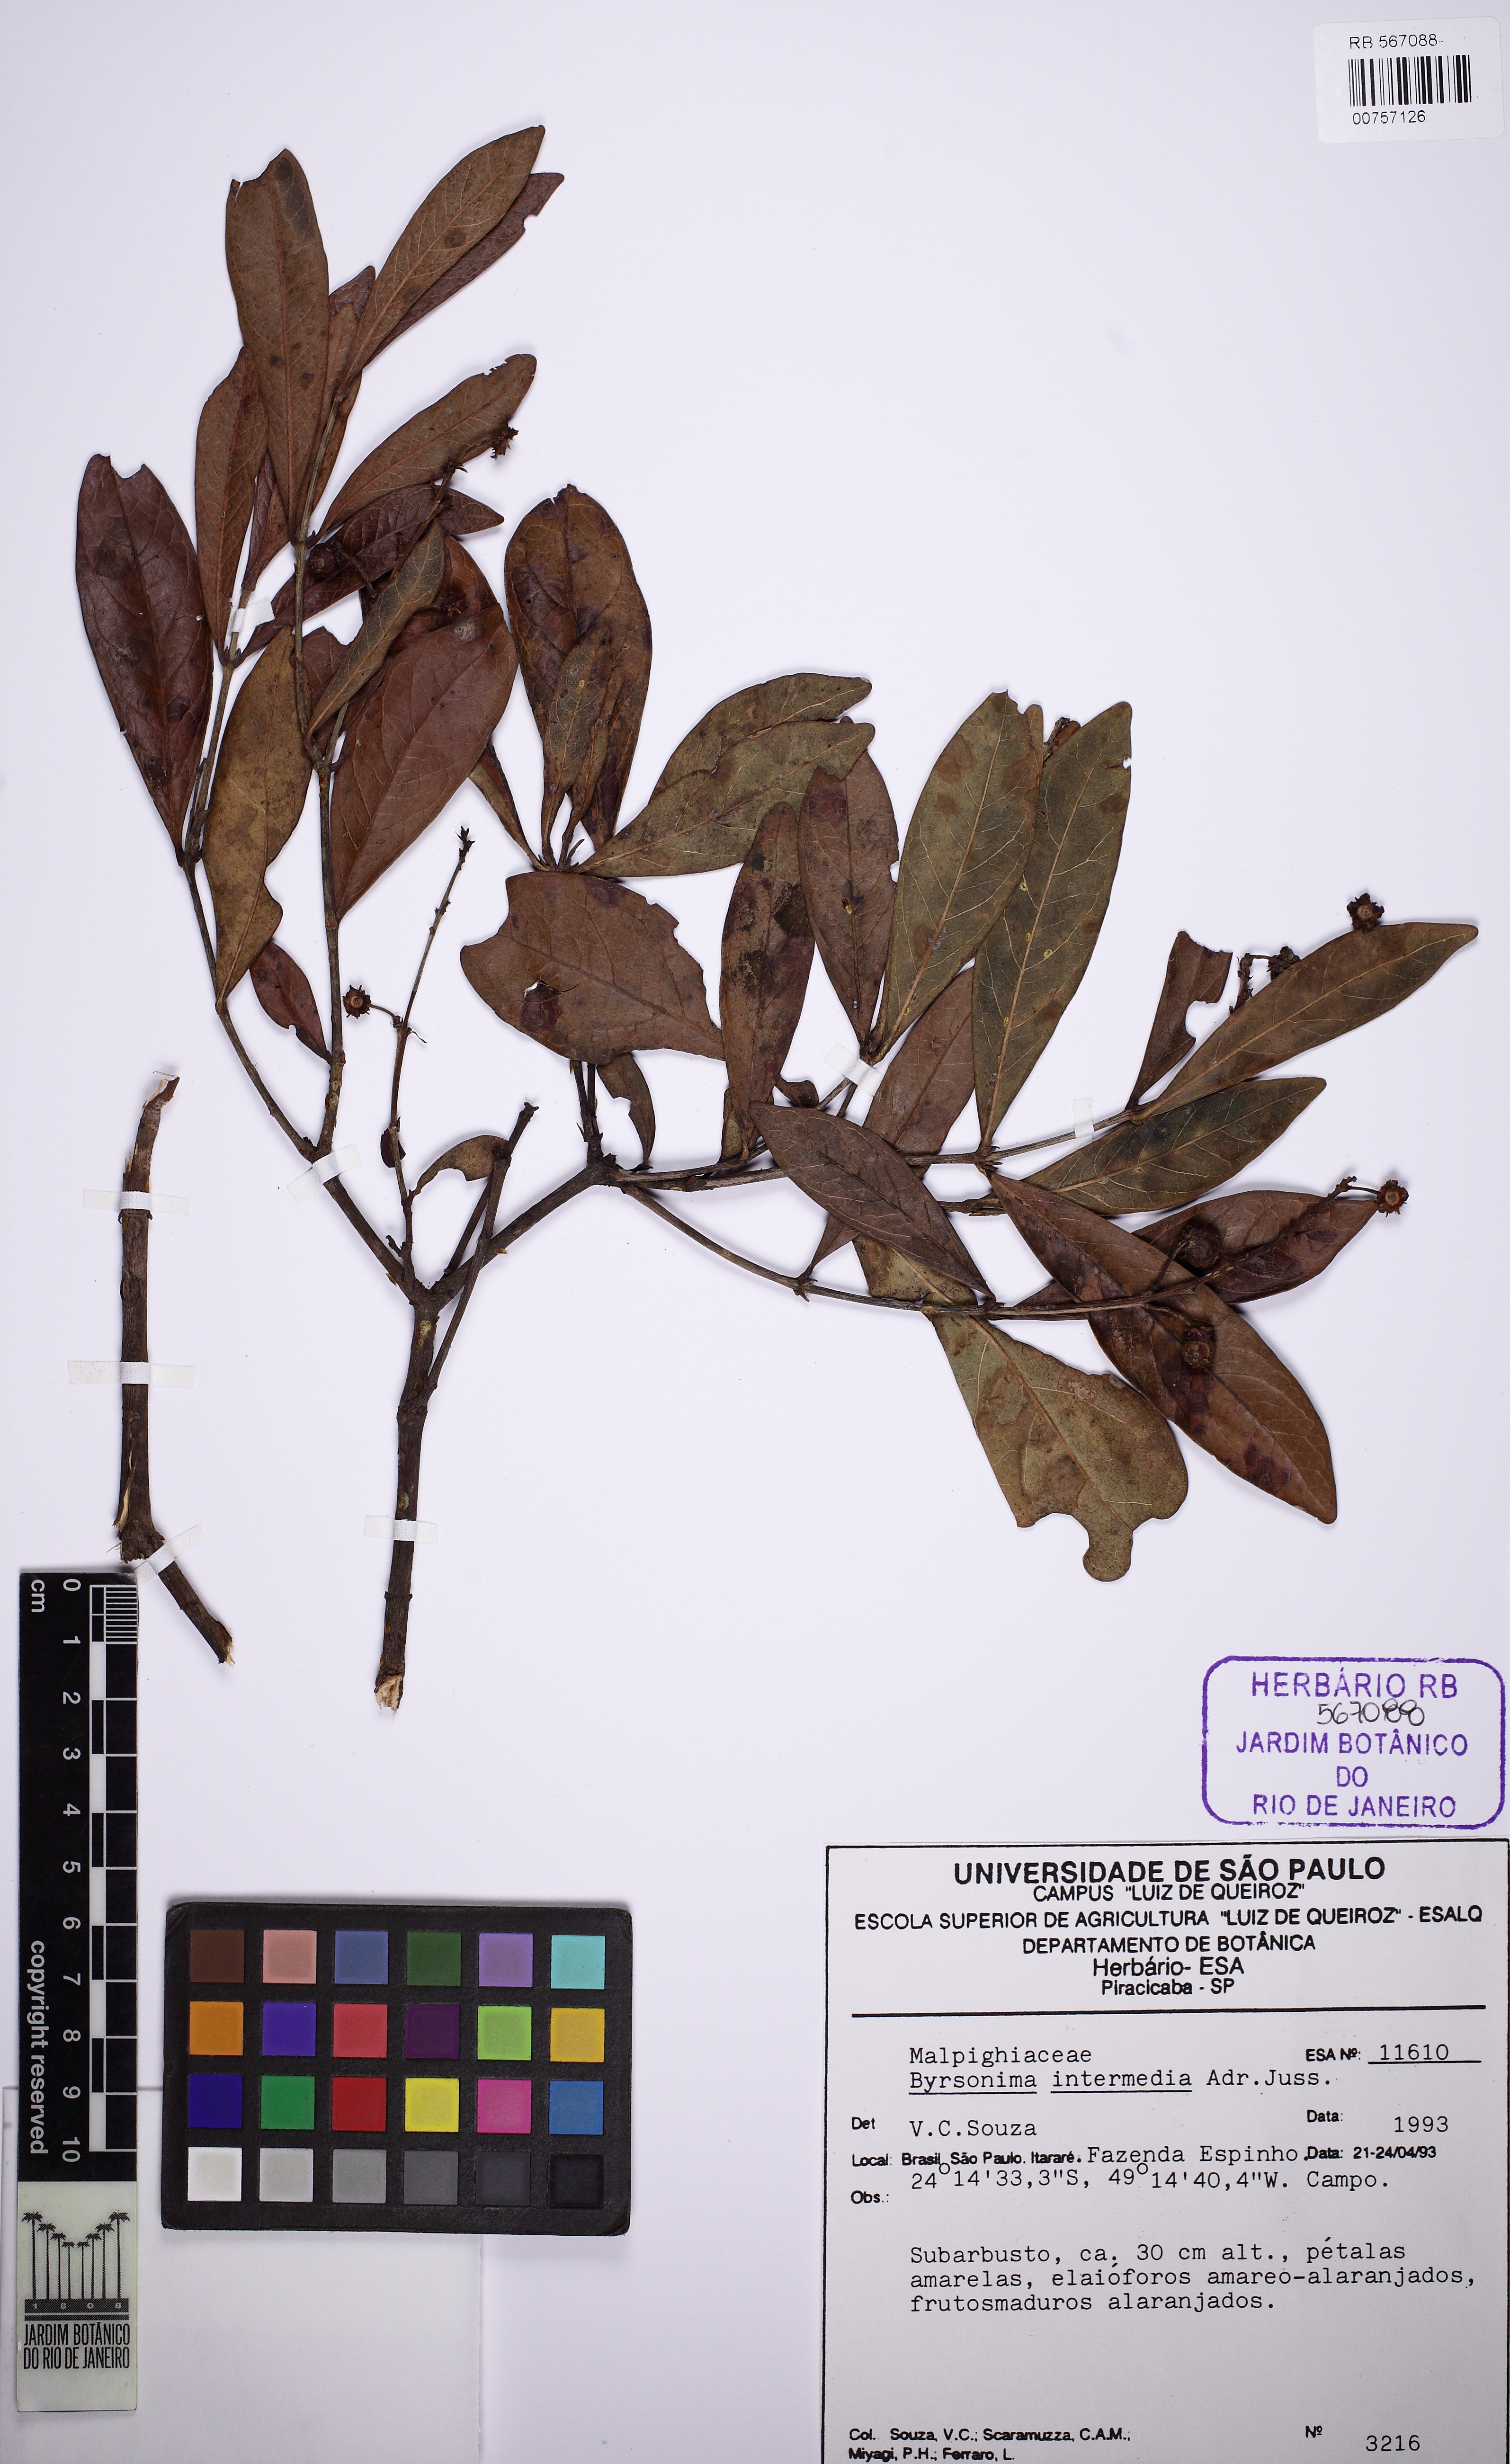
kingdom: Plantae
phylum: Tracheophyta
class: Magnoliopsida
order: Malpighiales
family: Malpighiaceae
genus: Byrsonima
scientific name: Byrsonima intermedia
